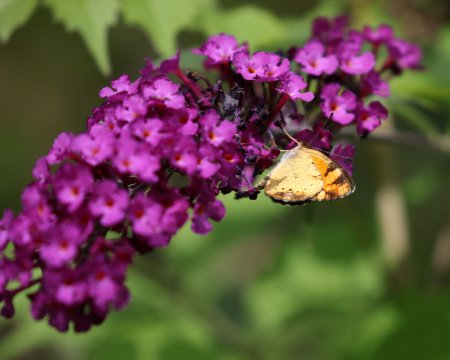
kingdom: Animalia
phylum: Arthropoda
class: Insecta
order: Lepidoptera
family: Nymphalidae
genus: Phyciodes
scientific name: Phyciodes tharos
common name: Pearl Crescent
